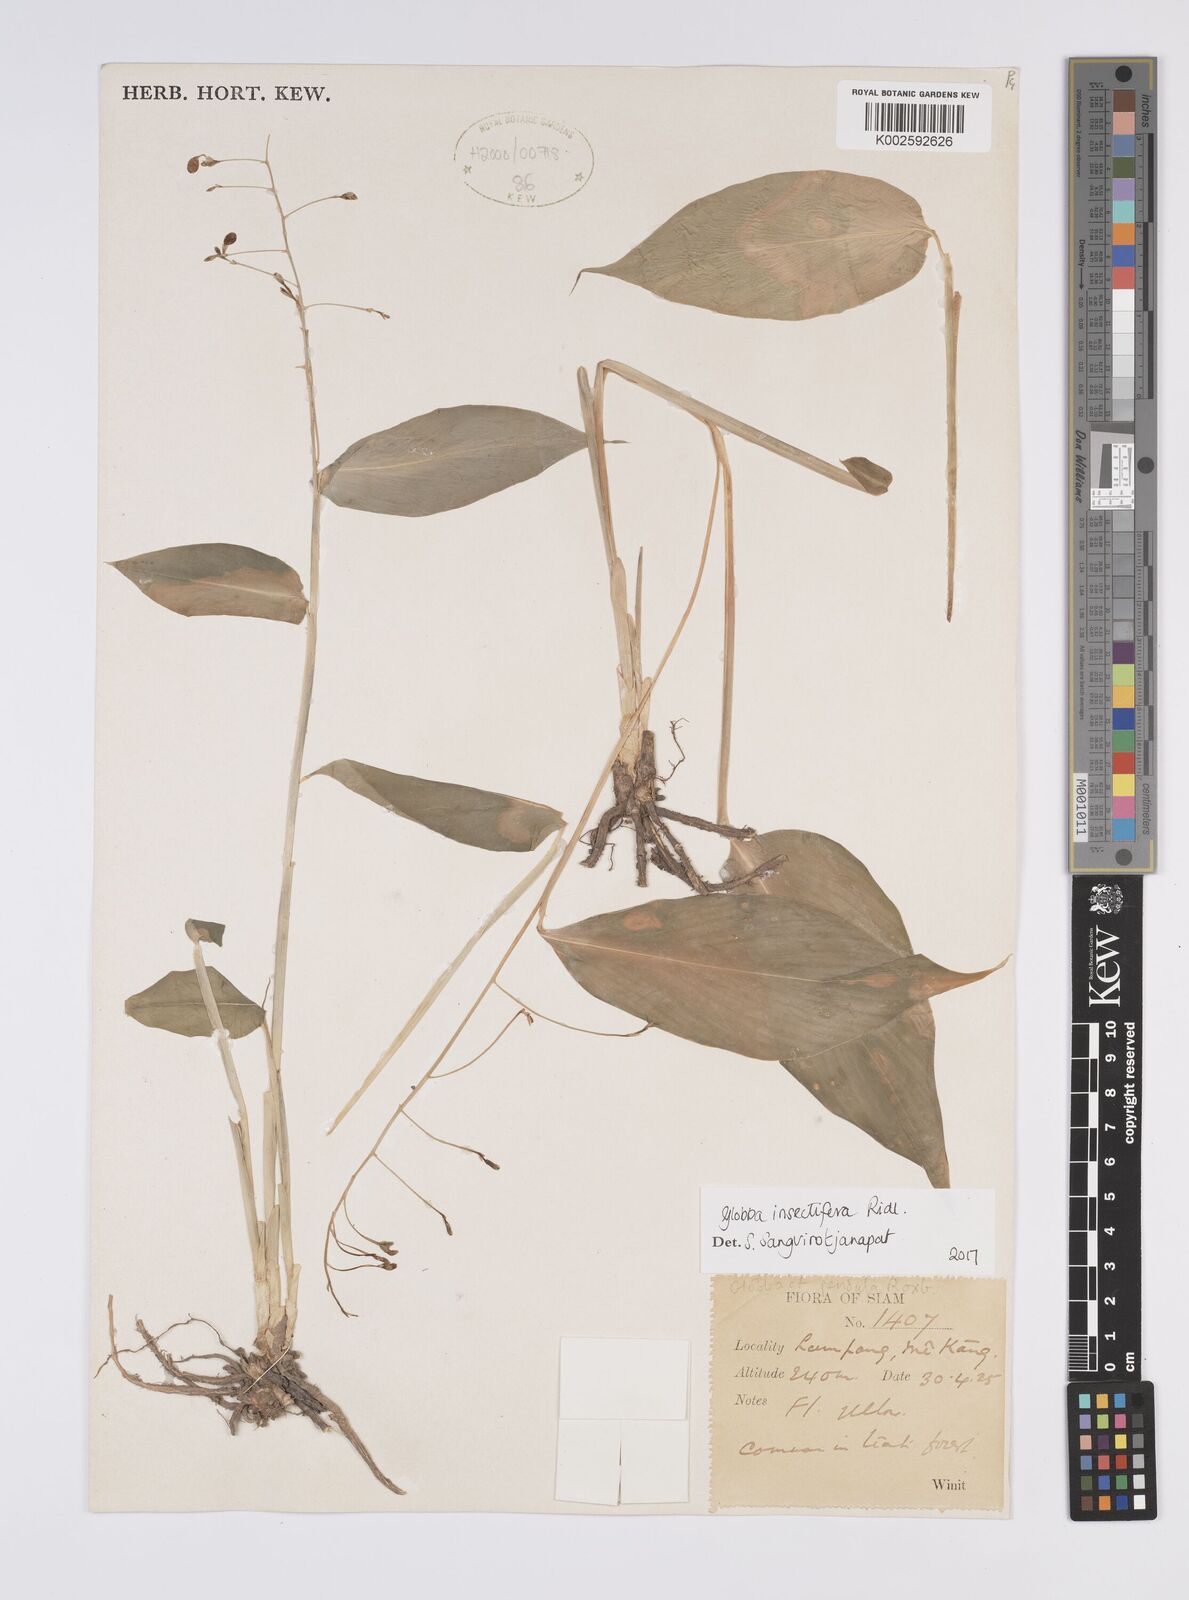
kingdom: Plantae
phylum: Tracheophyta
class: Liliopsida
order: Zingiberales
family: Zingiberaceae
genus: Globba
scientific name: Globba insectifera
